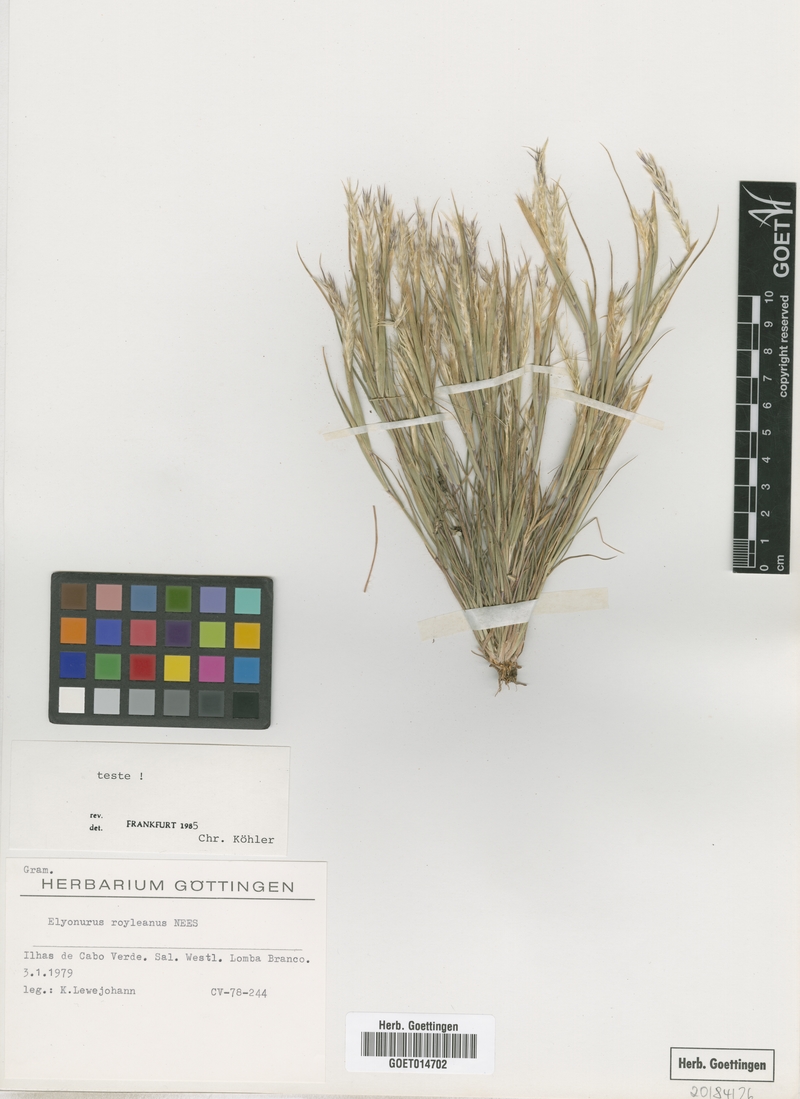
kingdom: Plantae
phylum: Tracheophyta
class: Liliopsida
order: Poales
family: Poaceae
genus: Elionurus
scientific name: Elionurus royleanus
